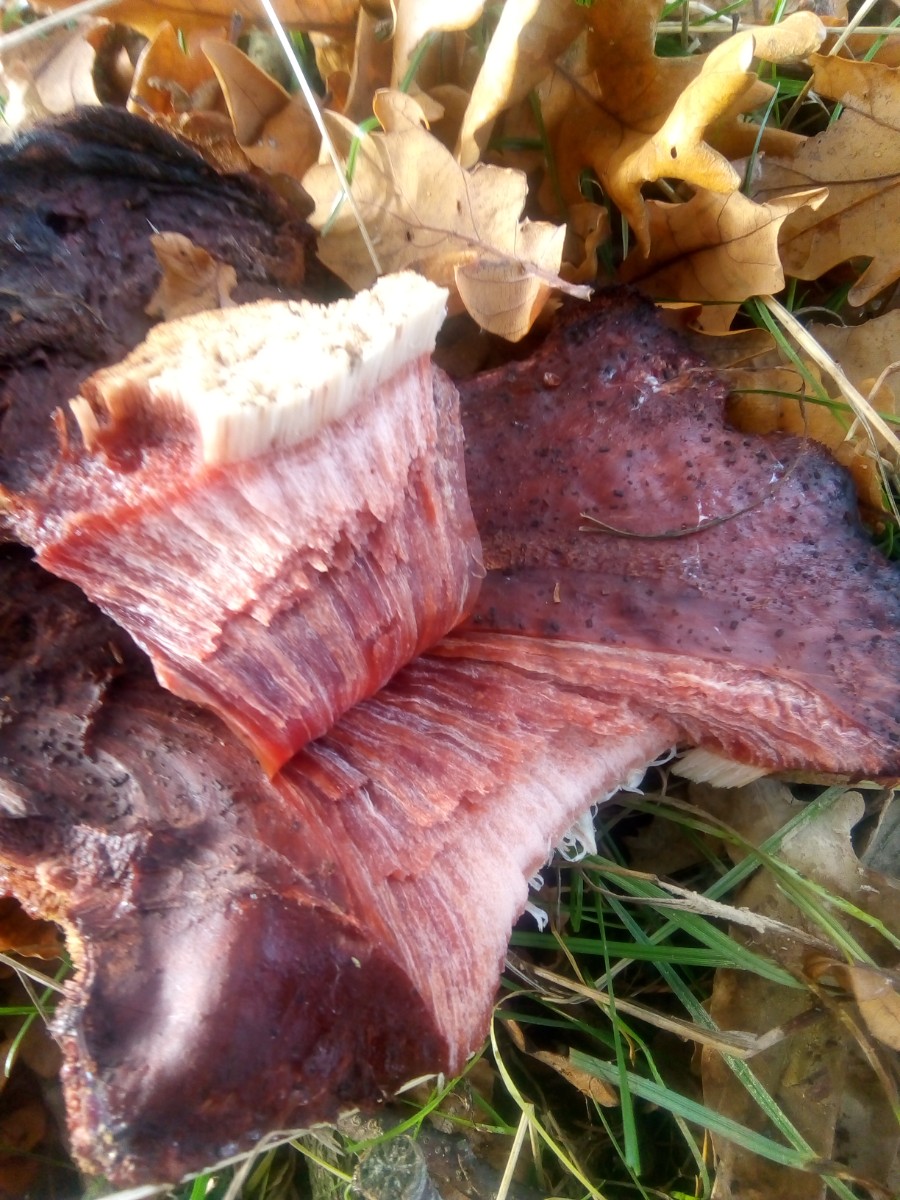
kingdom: Fungi
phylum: Basidiomycota
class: Agaricomycetes
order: Agaricales
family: Fistulinaceae
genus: Fistulina
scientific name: Fistulina hepatica
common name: oksetunge
